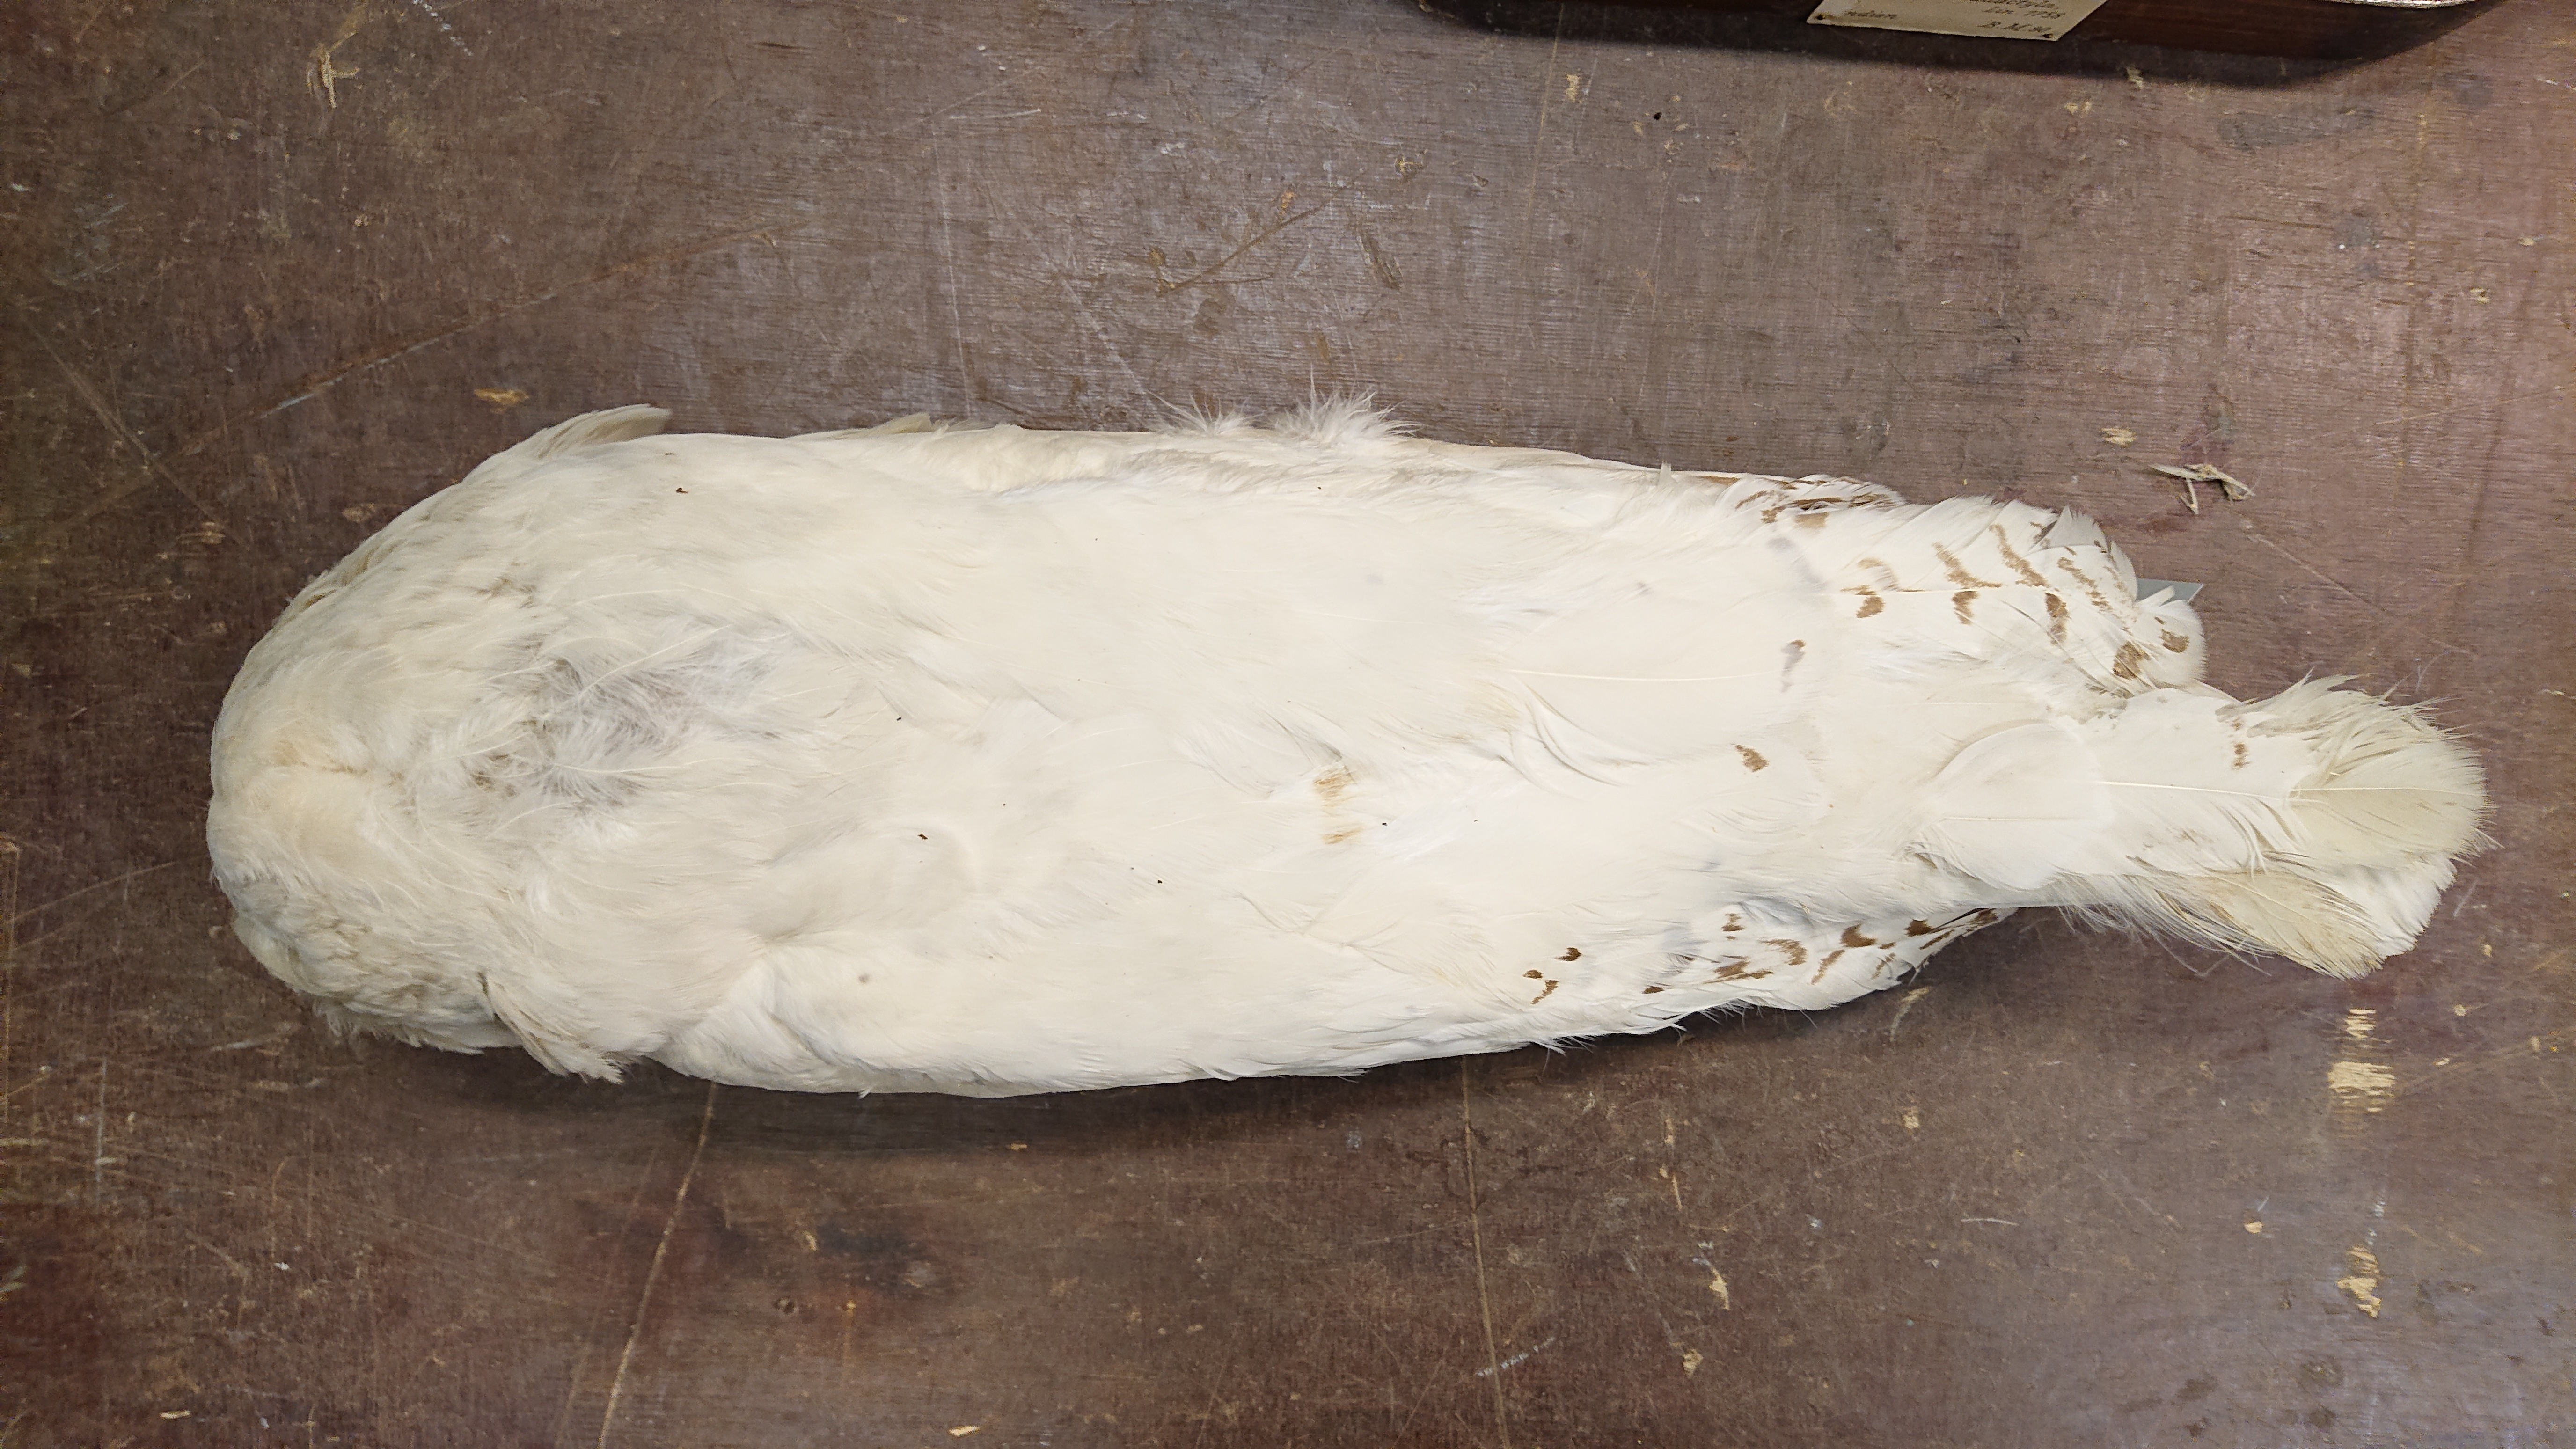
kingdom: Animalia
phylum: Chordata
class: Aves
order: Strigiformes
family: Strigidae
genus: Bubo
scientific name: Bubo scandiacus
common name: Snowy owl
